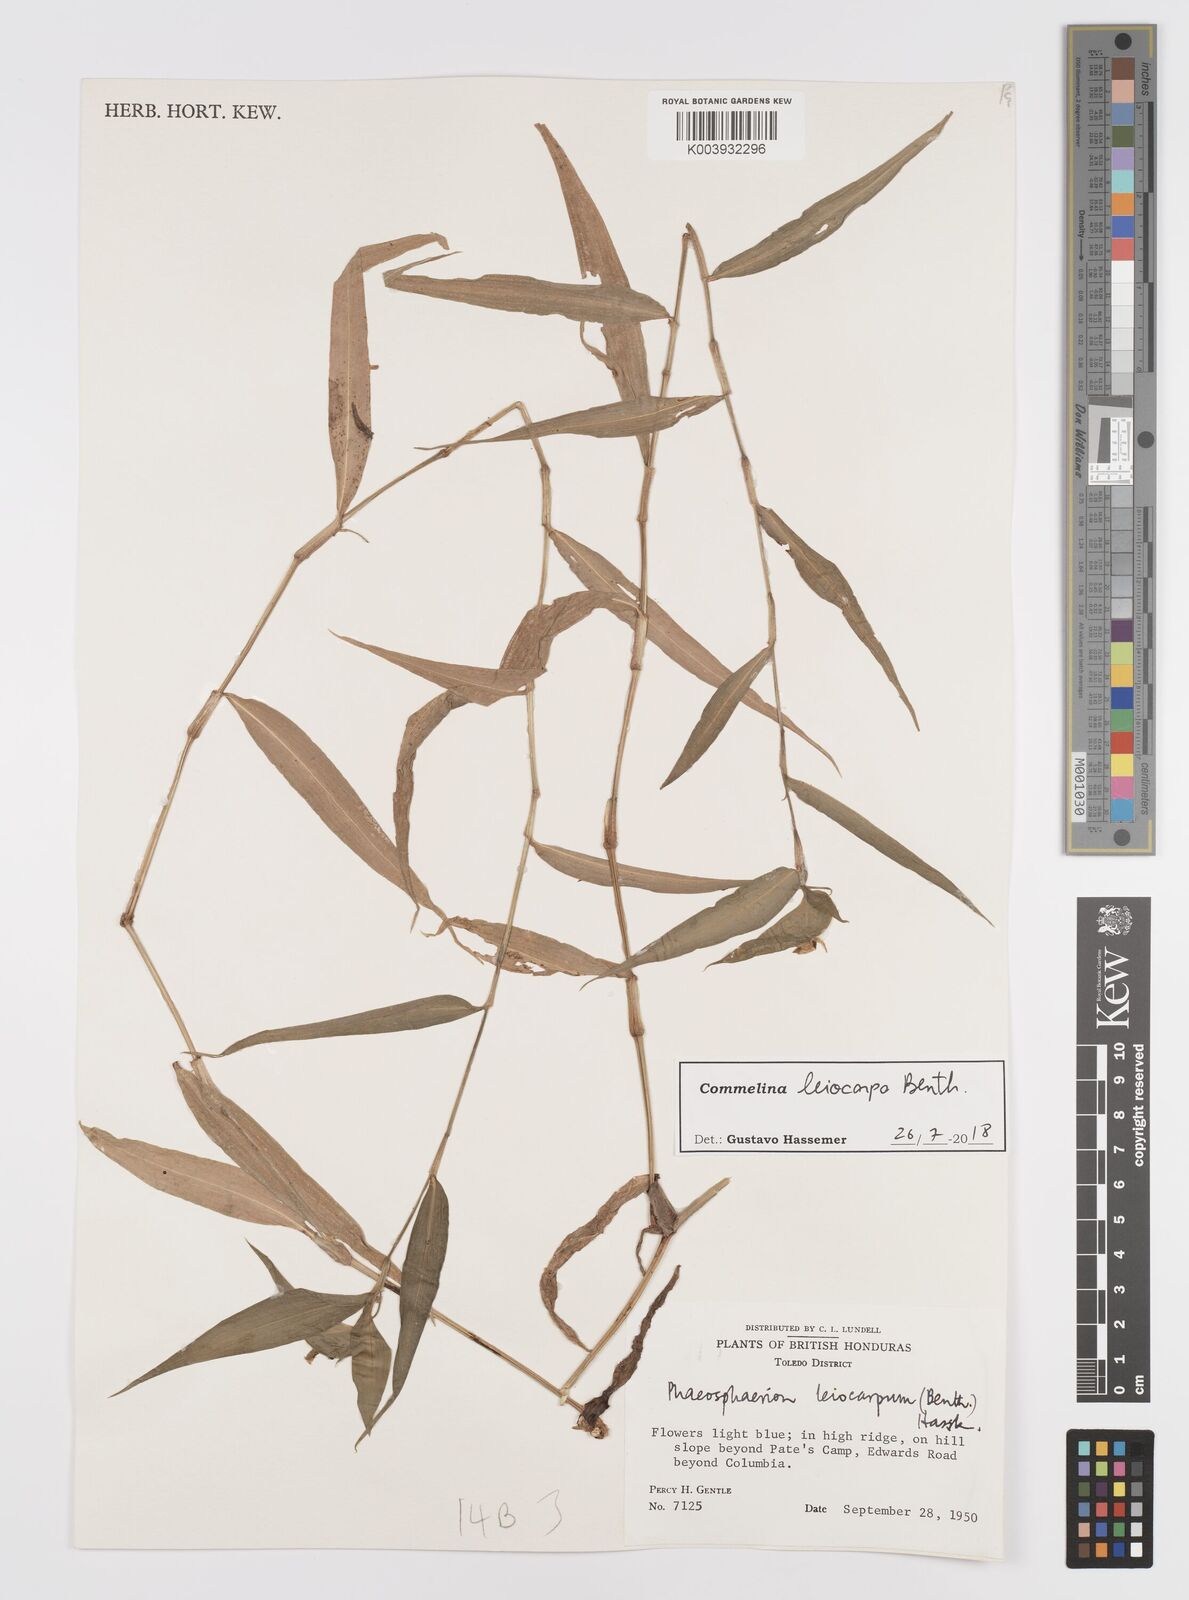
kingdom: Plantae
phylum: Tracheophyta
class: Liliopsida
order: Commelinales
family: Commelinaceae
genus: Commelina
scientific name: Commelina leiocarpa
